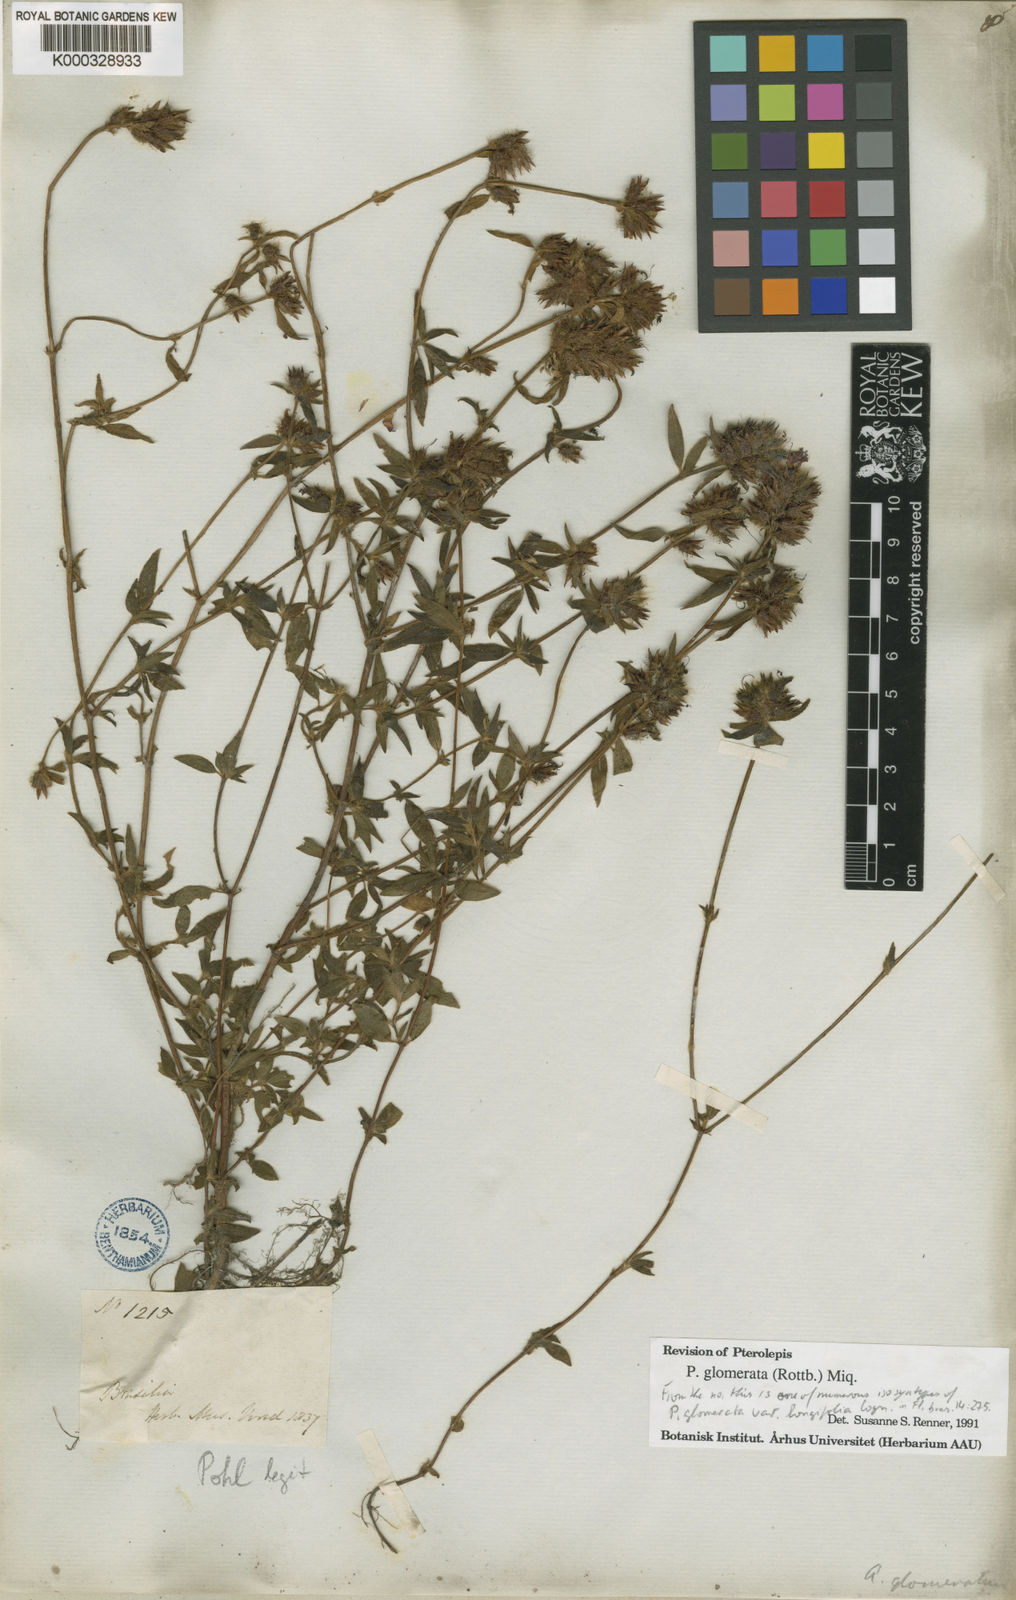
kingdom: Plantae
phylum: Tracheophyta
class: Magnoliopsida
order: Myrtales
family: Melastomataceae
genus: Pterolepis
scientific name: Pterolepis glomerata
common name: False meadowbeauty
